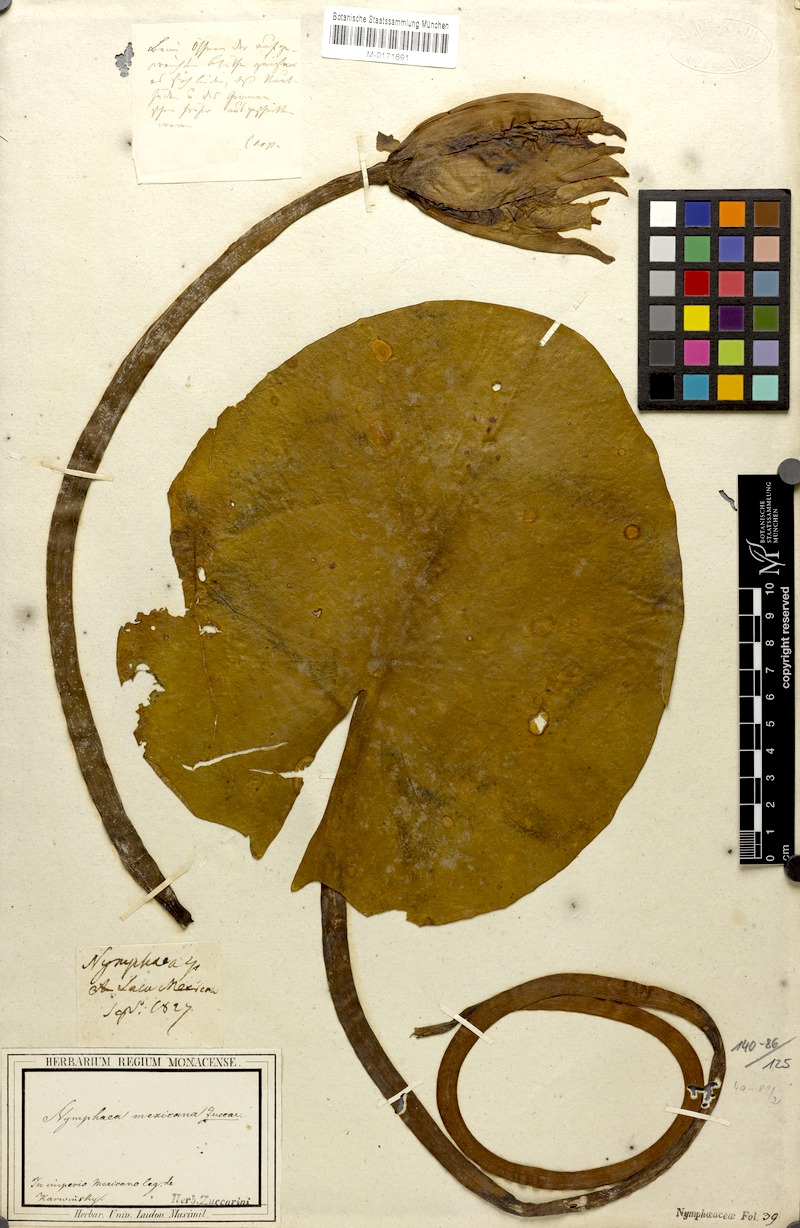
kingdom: Plantae
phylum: Tracheophyta
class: Magnoliopsida
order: Nymphaeales
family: Nymphaeaceae
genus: Nymphaea
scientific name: Nymphaea mexicana
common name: Banana water-lily
